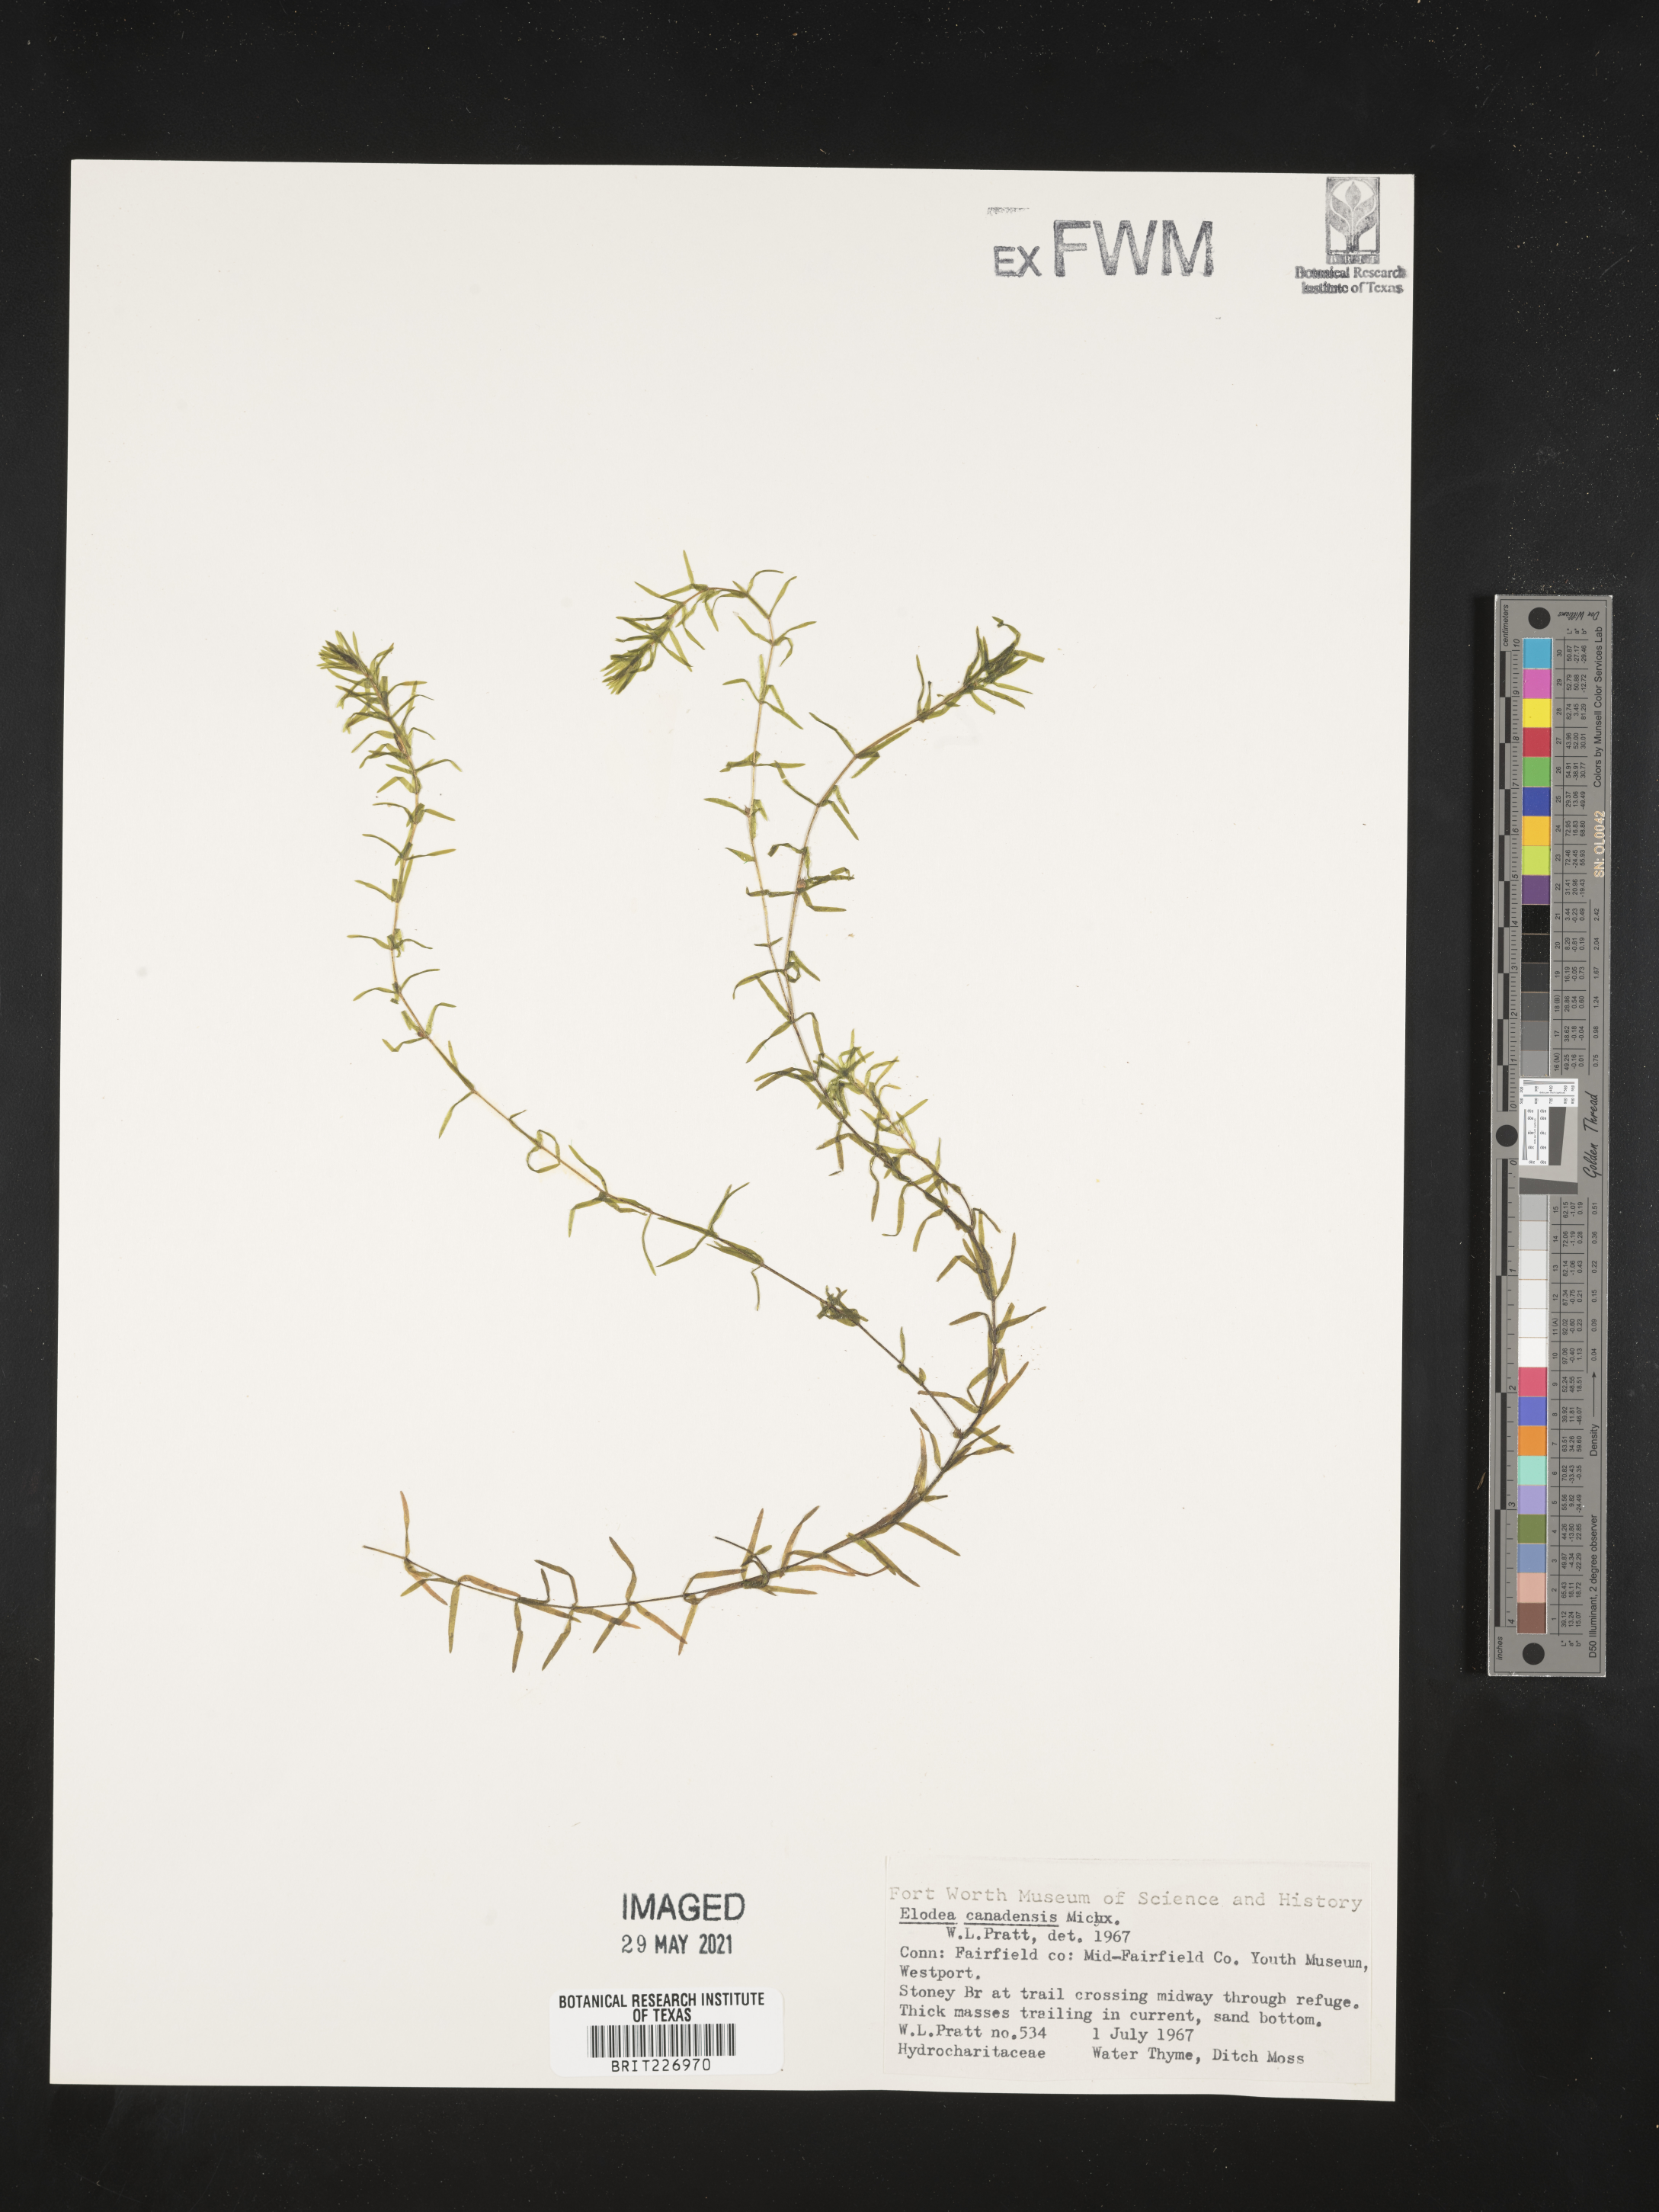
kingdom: Plantae
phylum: Tracheophyta
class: Liliopsida
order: Alismatales
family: Hydrocharitaceae
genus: Elodea
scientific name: Elodea canadensis
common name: Canadian waterweed
